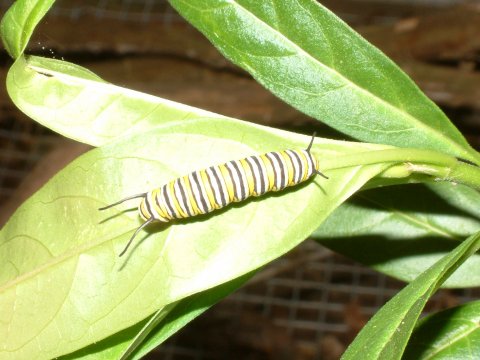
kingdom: Animalia
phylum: Arthropoda
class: Insecta
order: Lepidoptera
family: Nymphalidae
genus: Danaus
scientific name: Danaus plexippus
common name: Monarch
